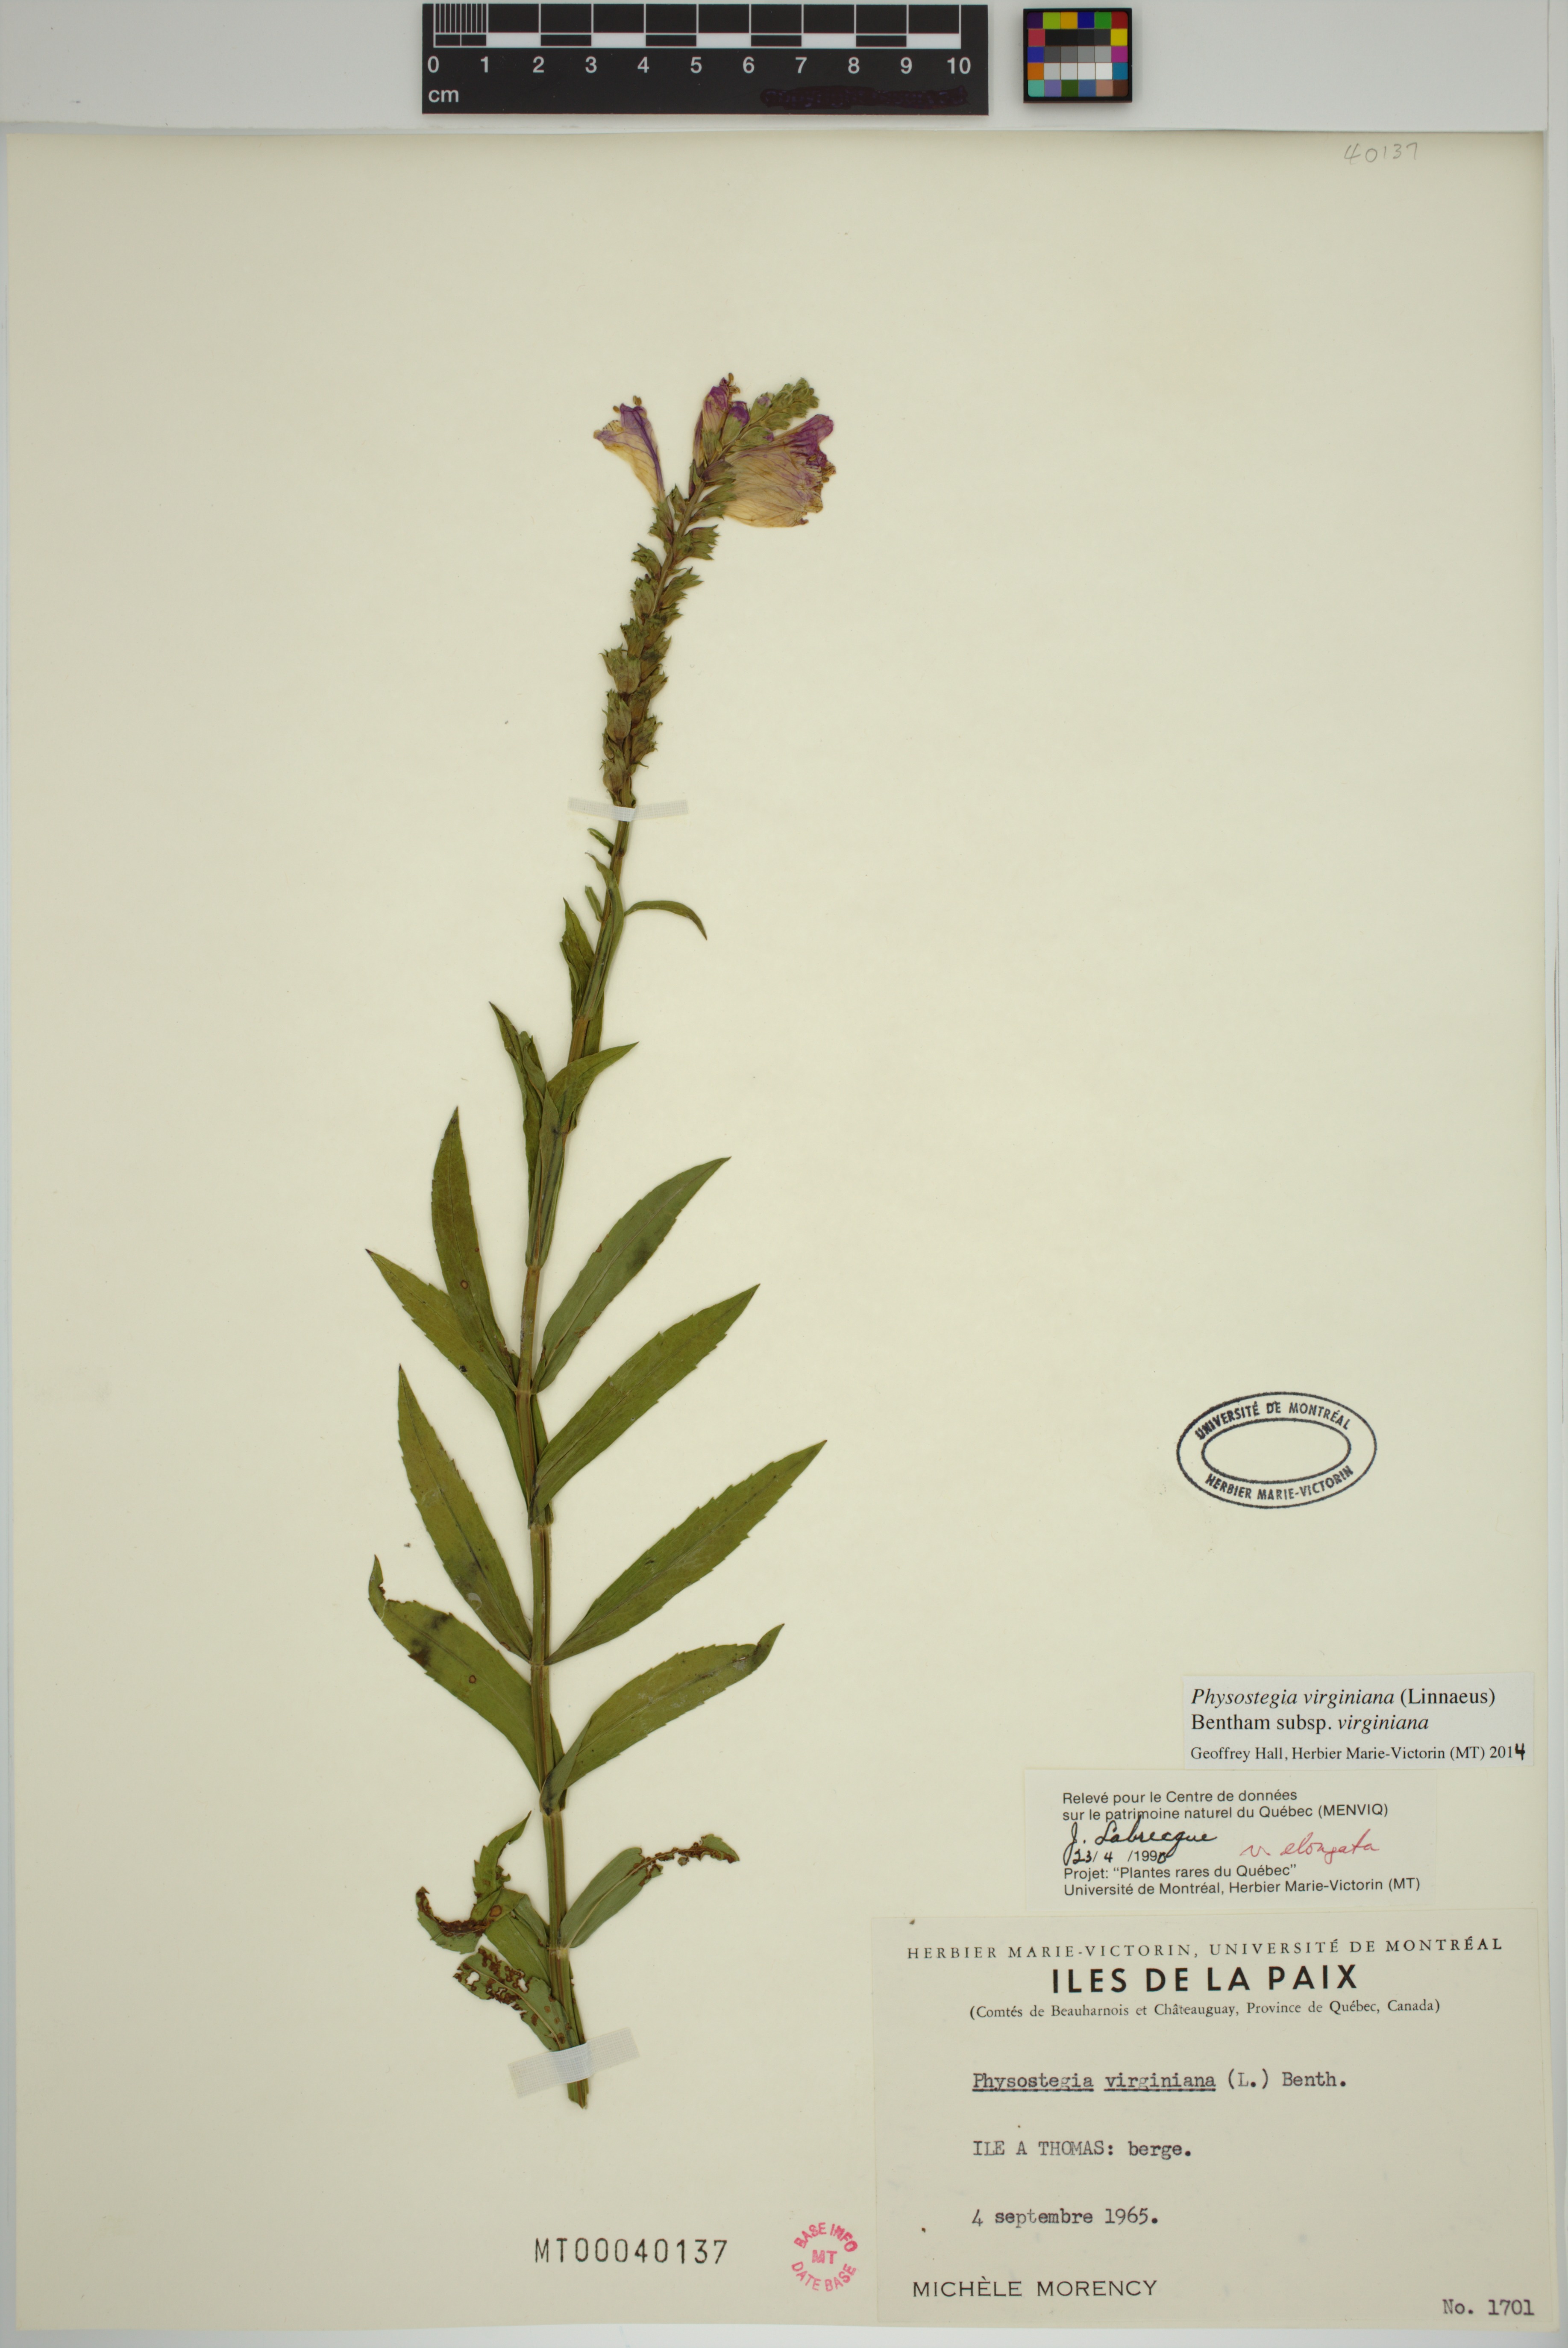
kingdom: Plantae
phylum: Tracheophyta
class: Magnoliopsida
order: Lamiales
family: Lamiaceae
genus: Physostegia
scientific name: Physostegia virginiana
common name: Obedient-plant
